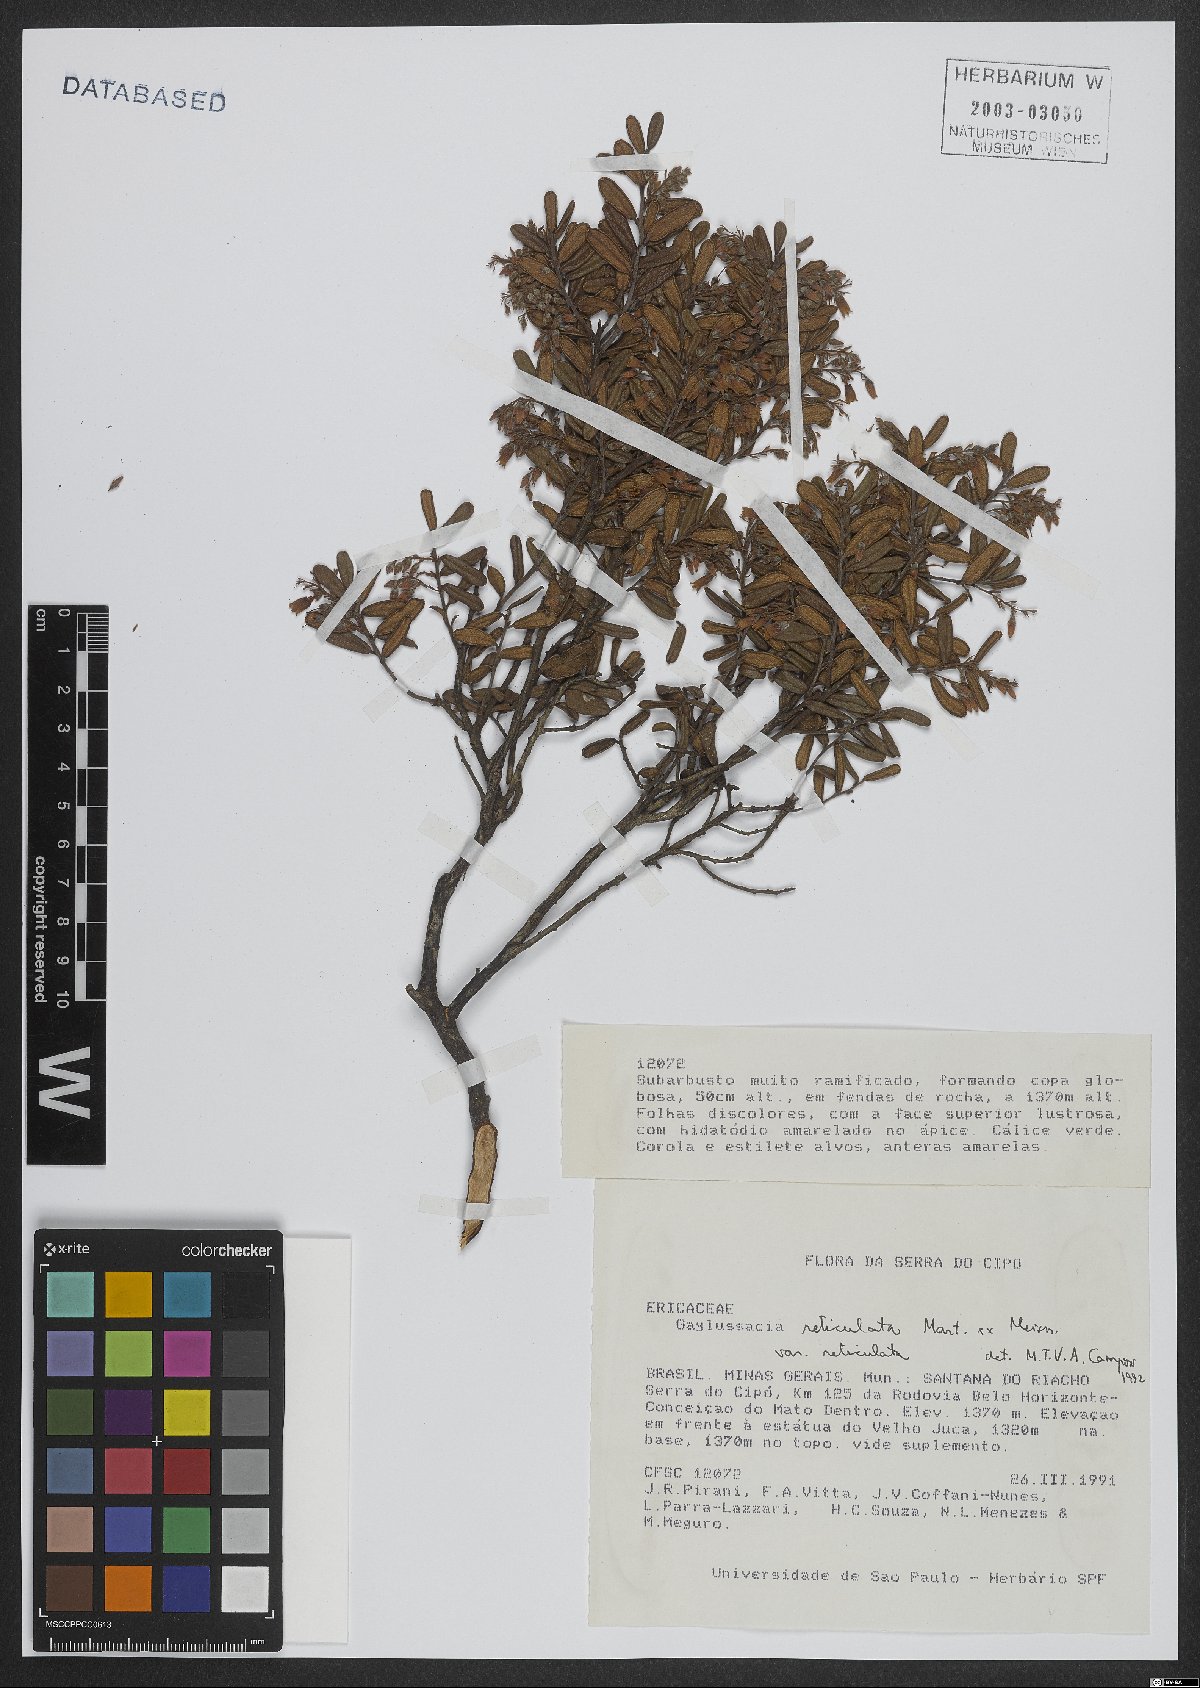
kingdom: Plantae
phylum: Tracheophyta
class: Magnoliopsida
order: Ericales
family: Ericaceae
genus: Gaylussacia
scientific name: Gaylussacia reticulata
